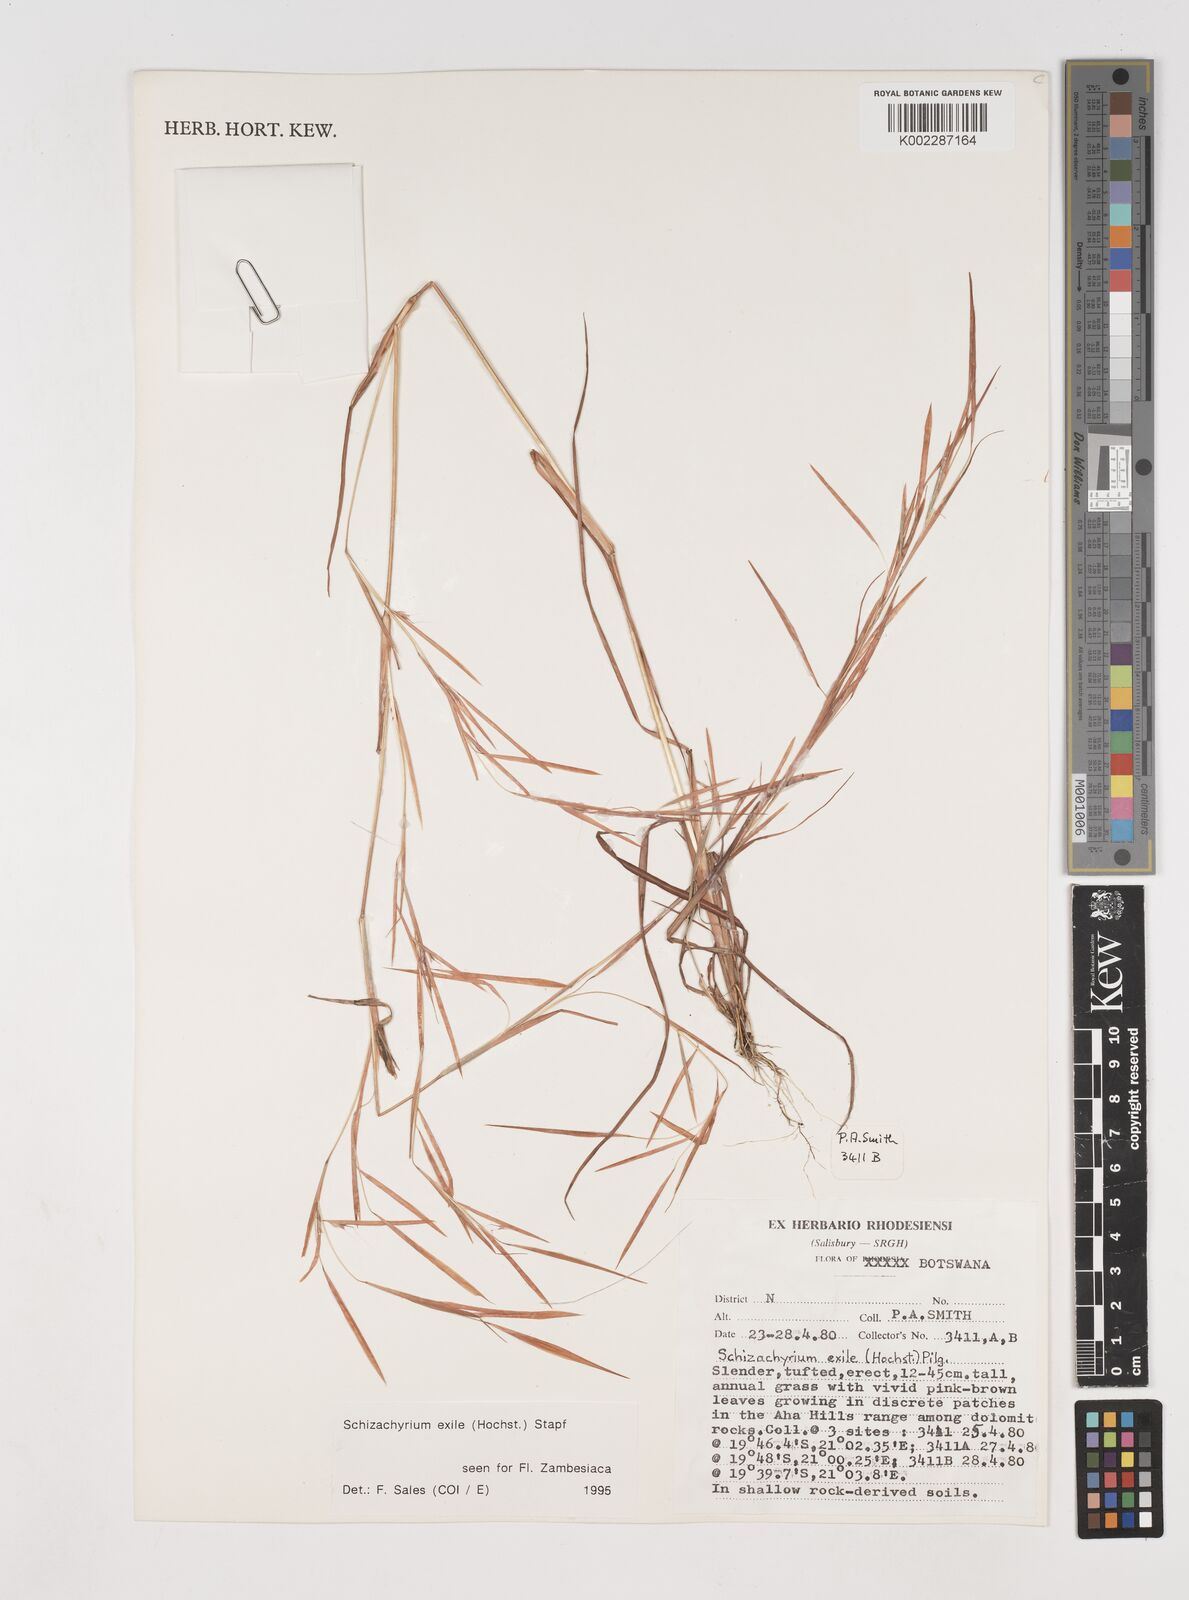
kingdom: Plantae
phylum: Tracheophyta
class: Liliopsida
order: Poales
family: Poaceae
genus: Schizachyrium
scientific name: Schizachyrium exile
